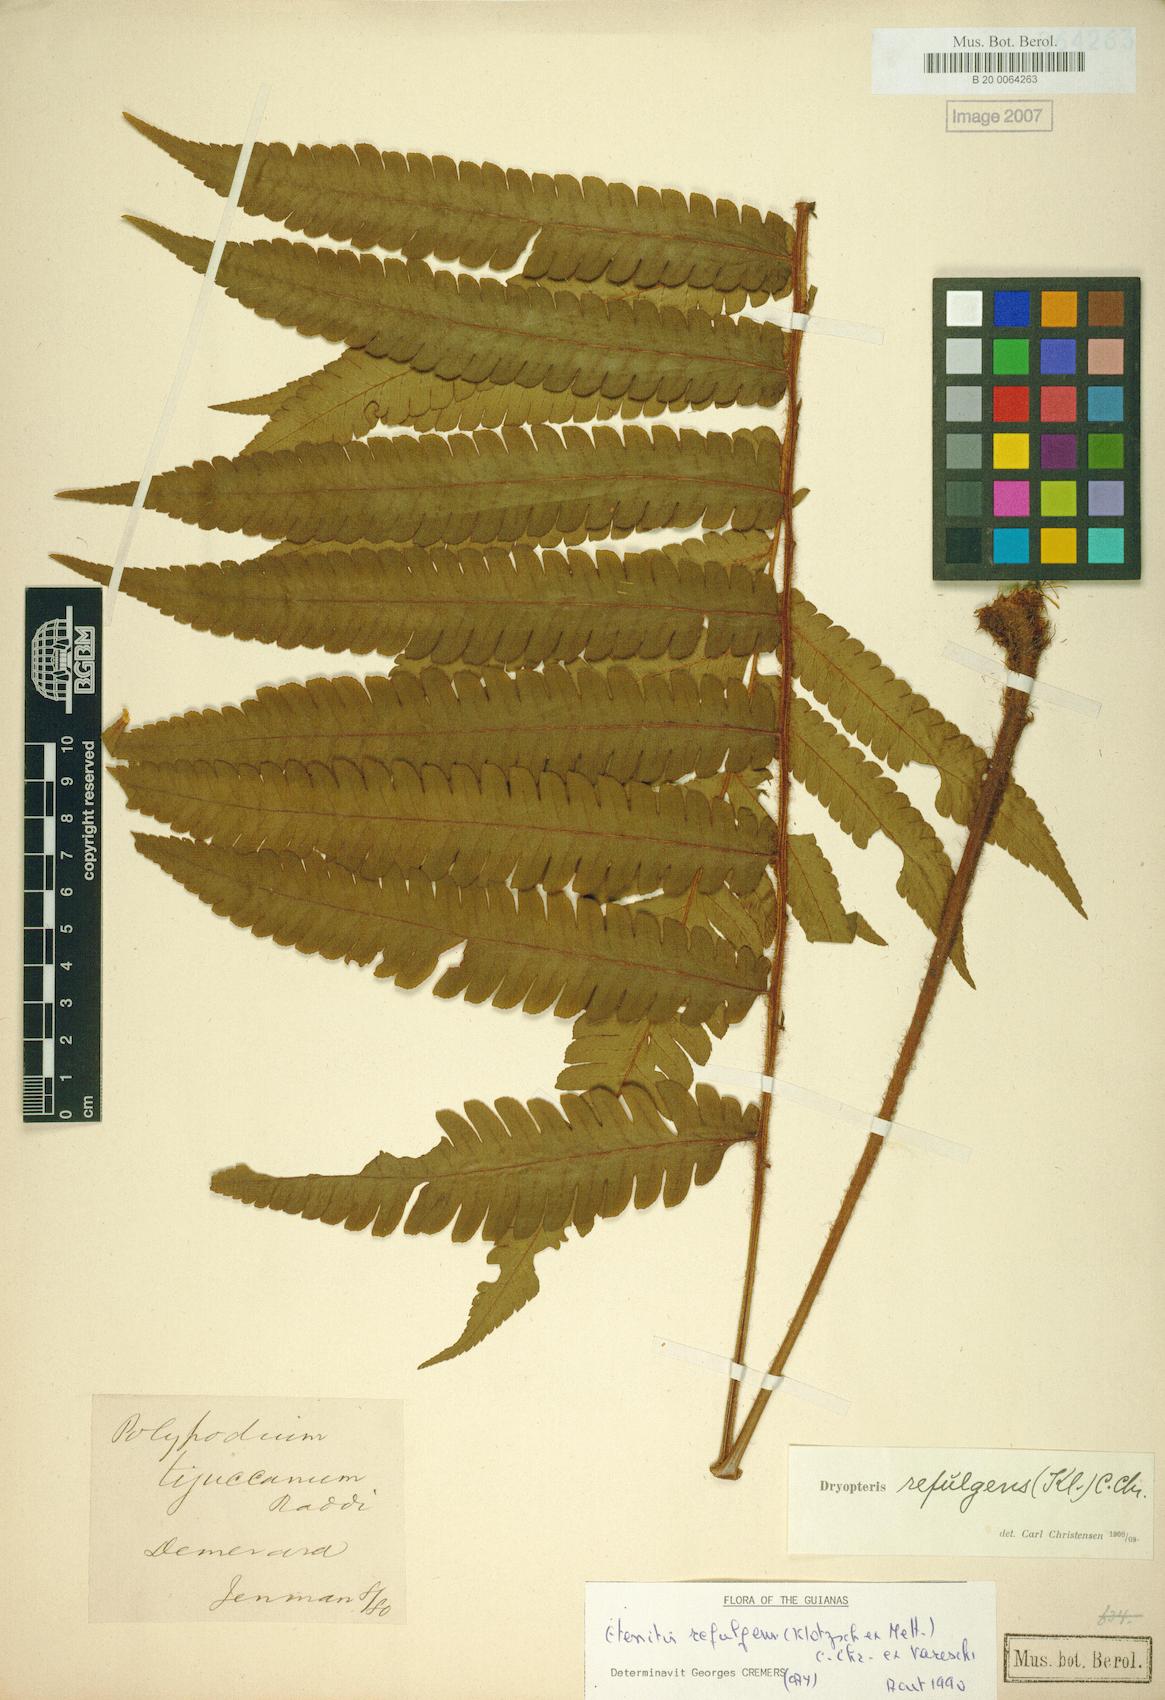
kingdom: Plantae
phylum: Tracheophyta
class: Polypodiopsida
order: Polypodiales
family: Dryopteridaceae
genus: Ctenitis
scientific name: Ctenitis refulgens
